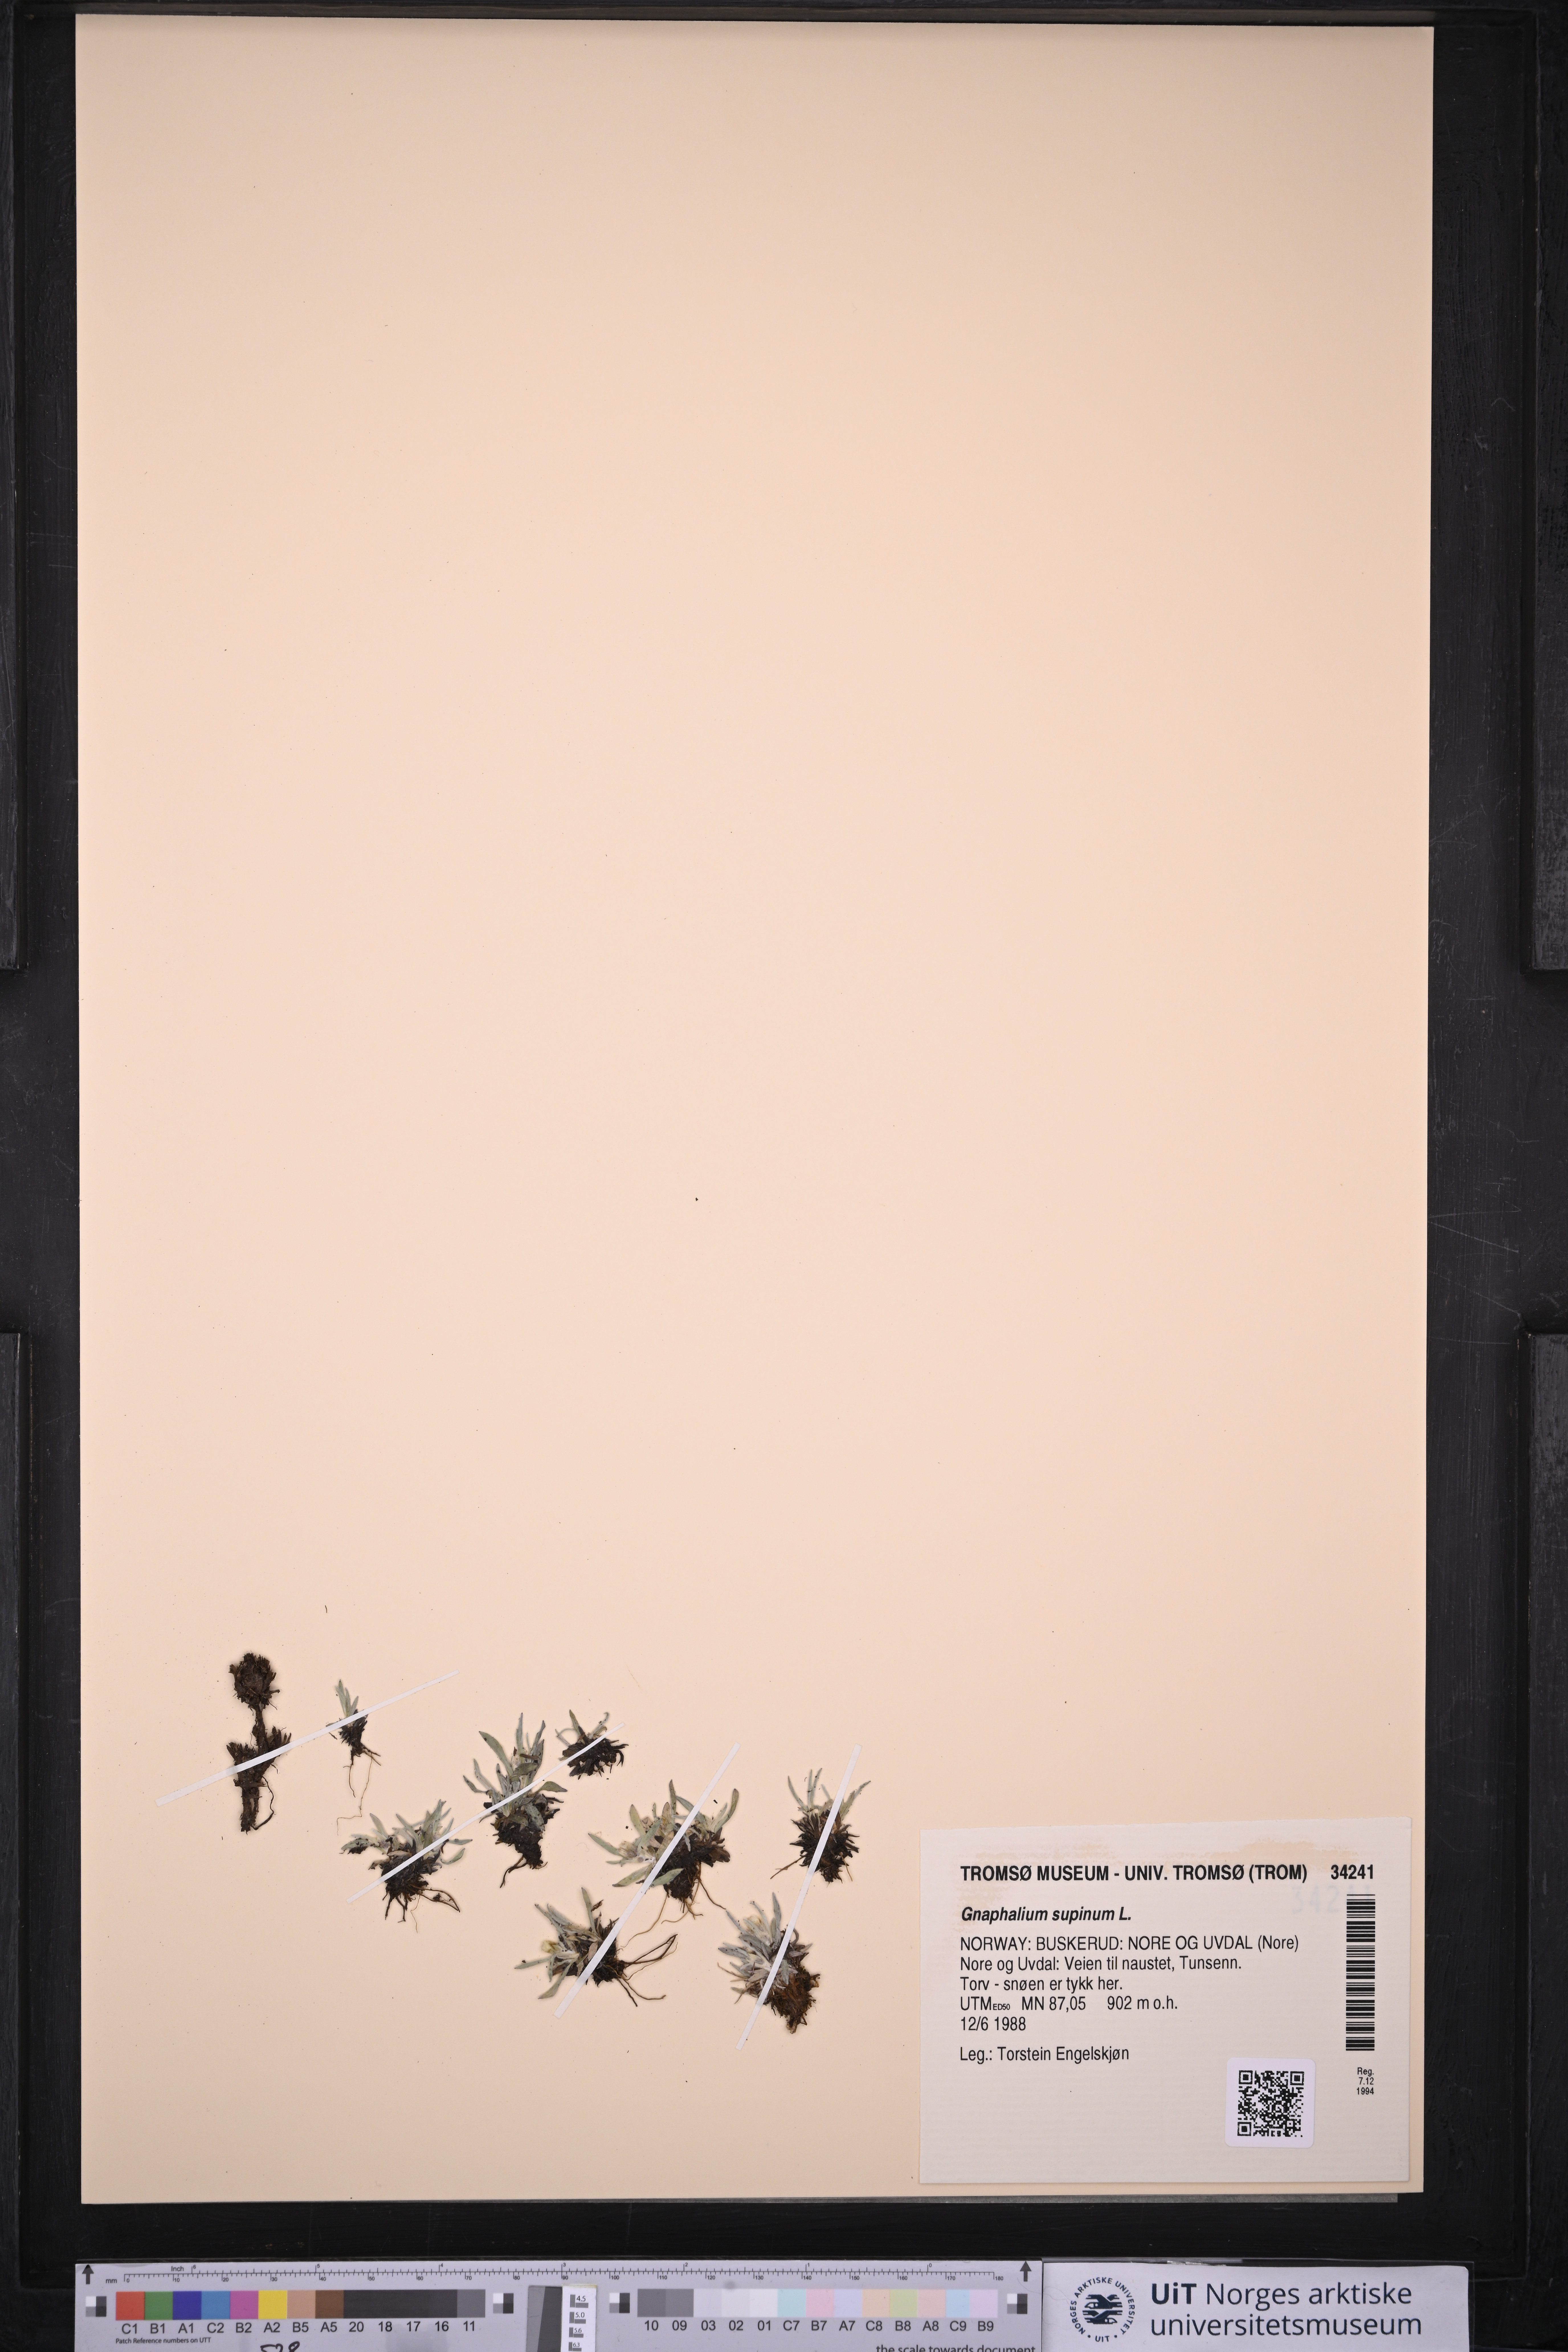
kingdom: Plantae
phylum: Tracheophyta
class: Magnoliopsida
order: Asterales
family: Asteraceae
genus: Omalotheca
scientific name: Omalotheca supina
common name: Alpine arctic-cudweed
